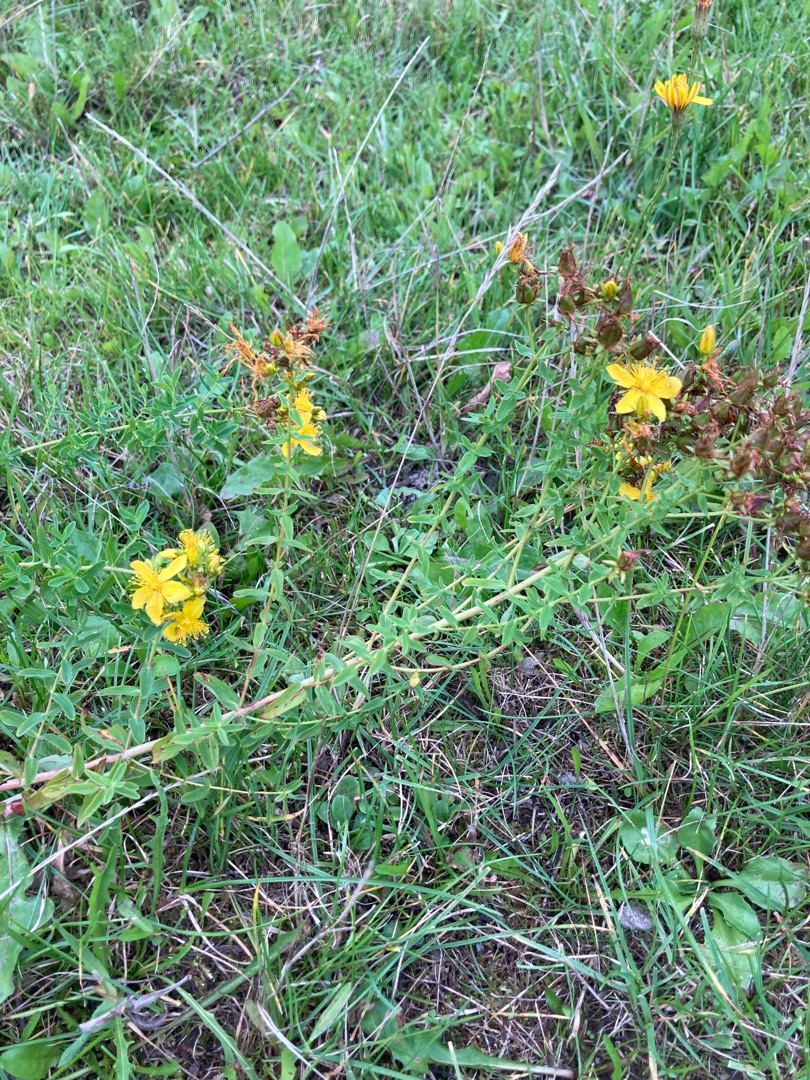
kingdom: Plantae
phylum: Tracheophyta
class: Magnoliopsida
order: Malpighiales
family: Hypericaceae
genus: Hypericum
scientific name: Hypericum perforatum
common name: Prikbladet perikon
